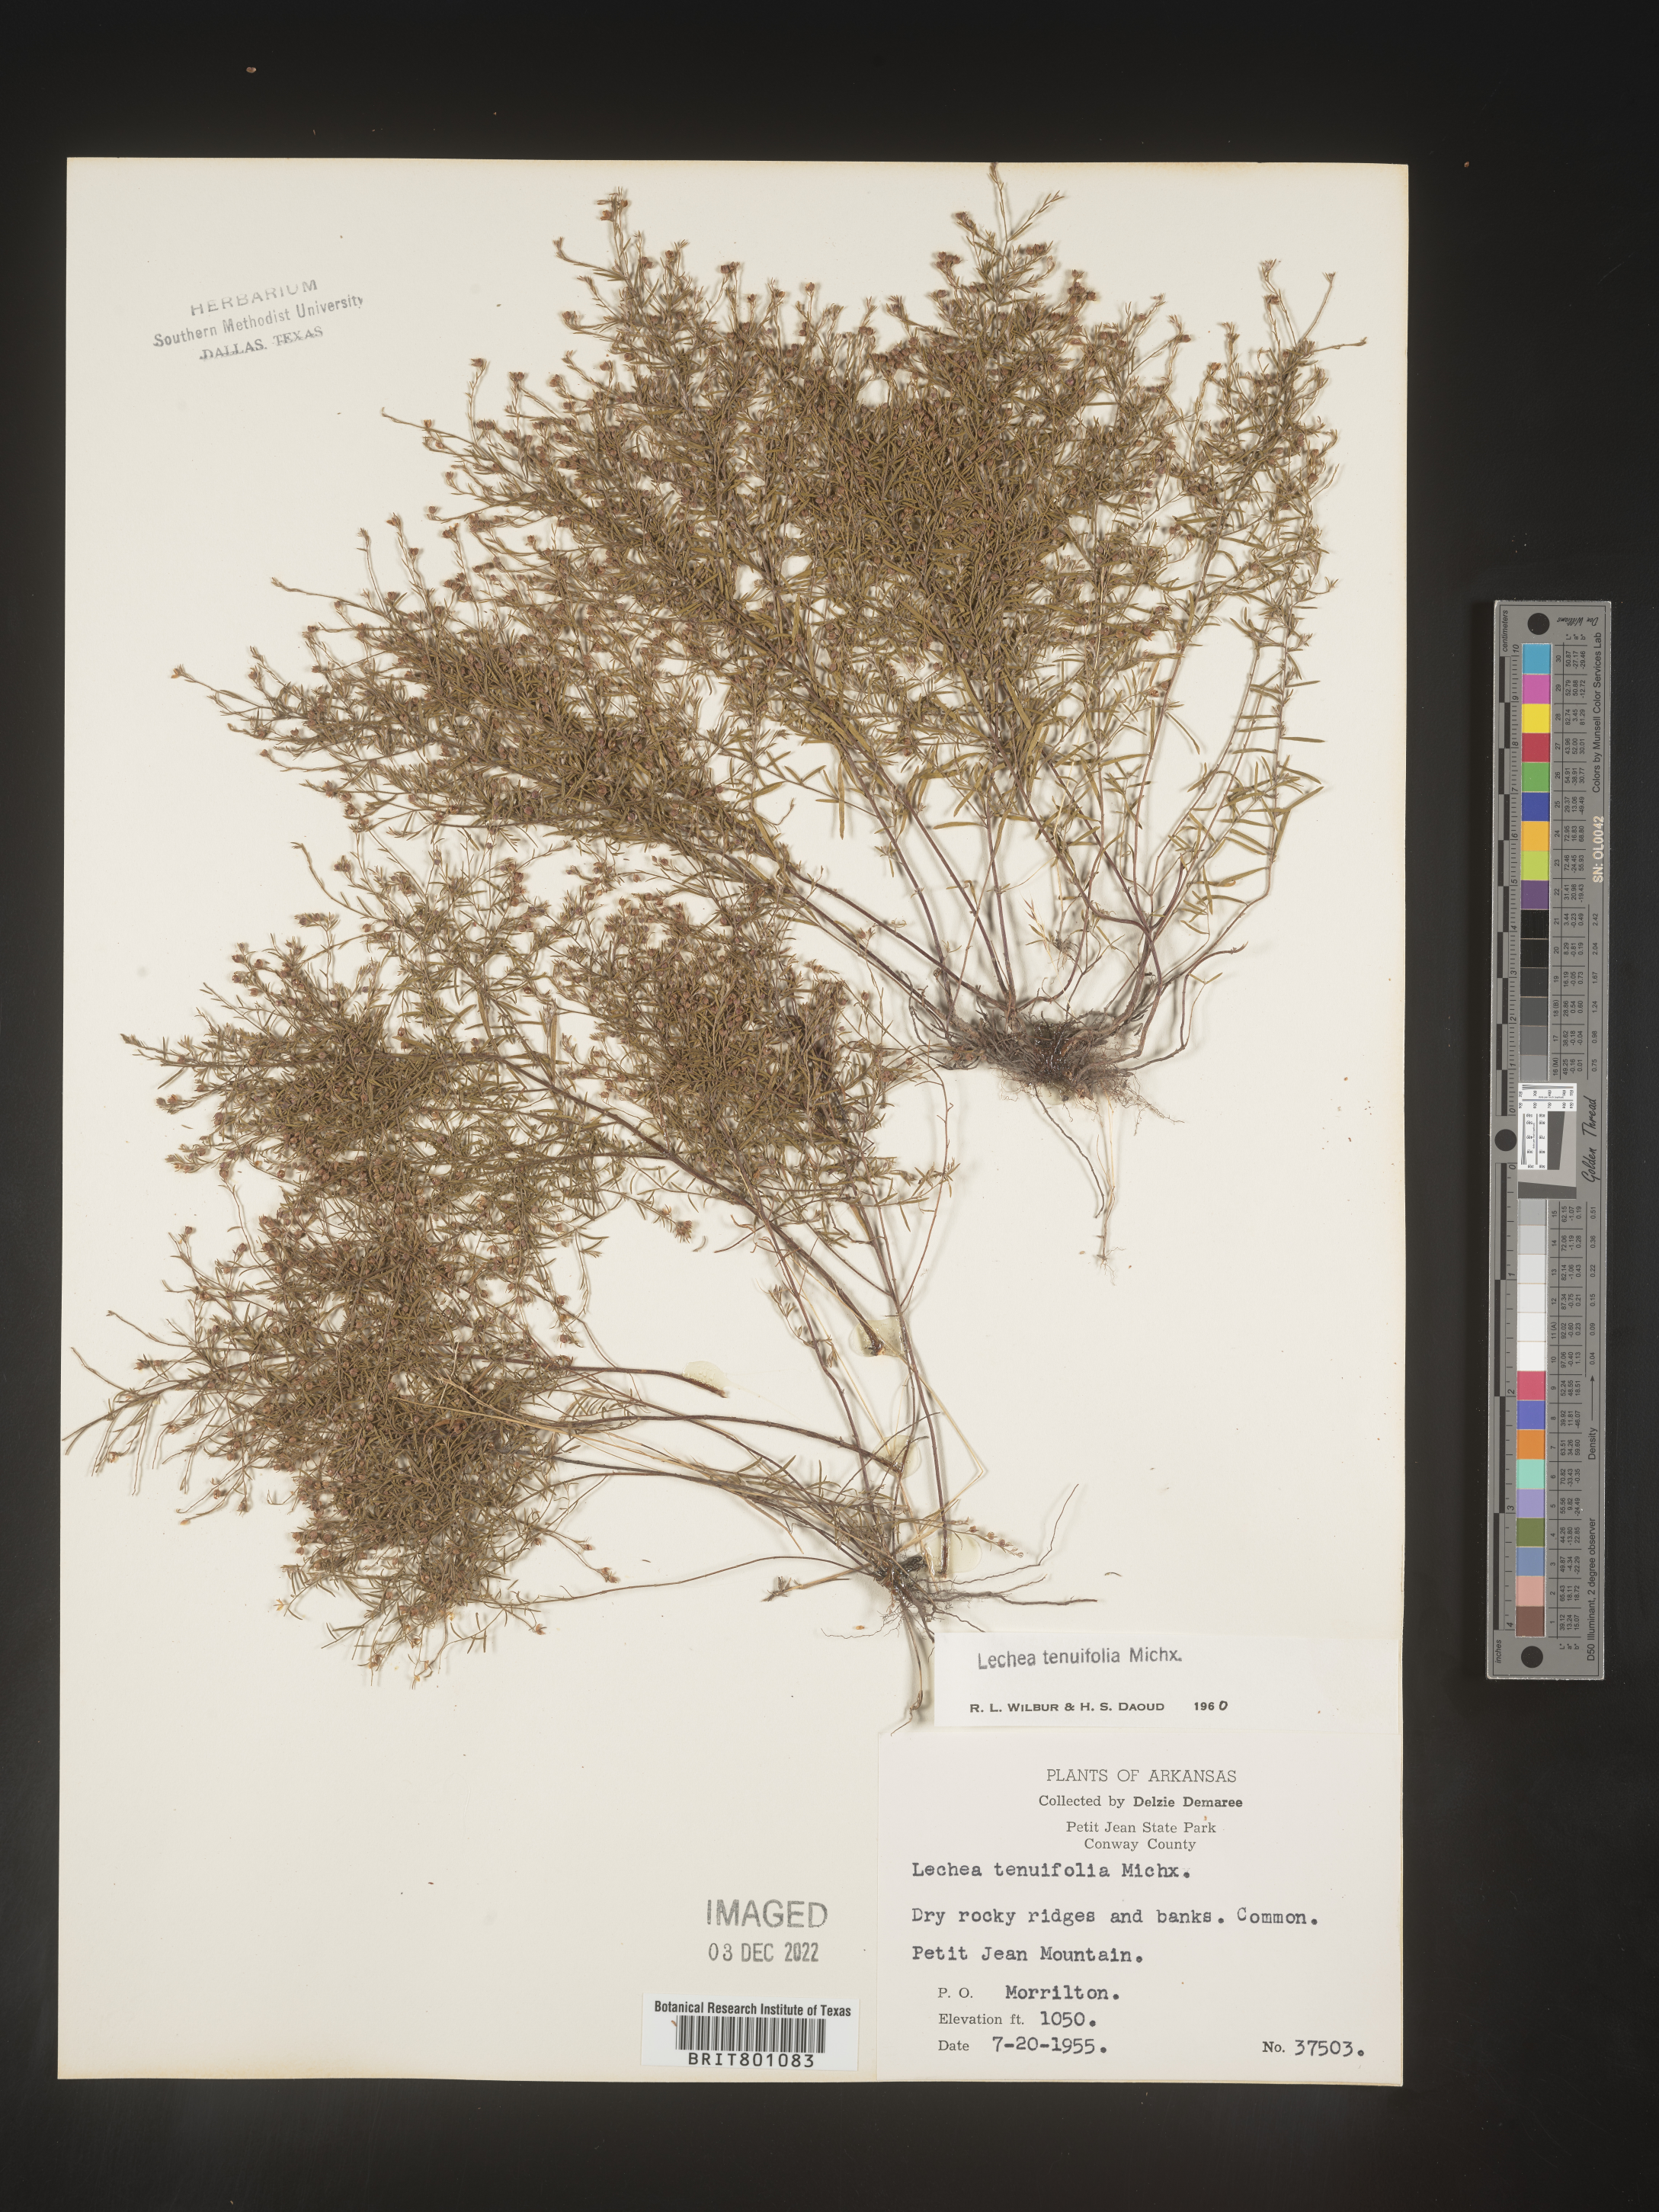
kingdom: Plantae
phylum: Tracheophyta
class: Magnoliopsida
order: Malvales
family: Cistaceae
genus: Lechea
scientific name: Lechea tenuifolia
